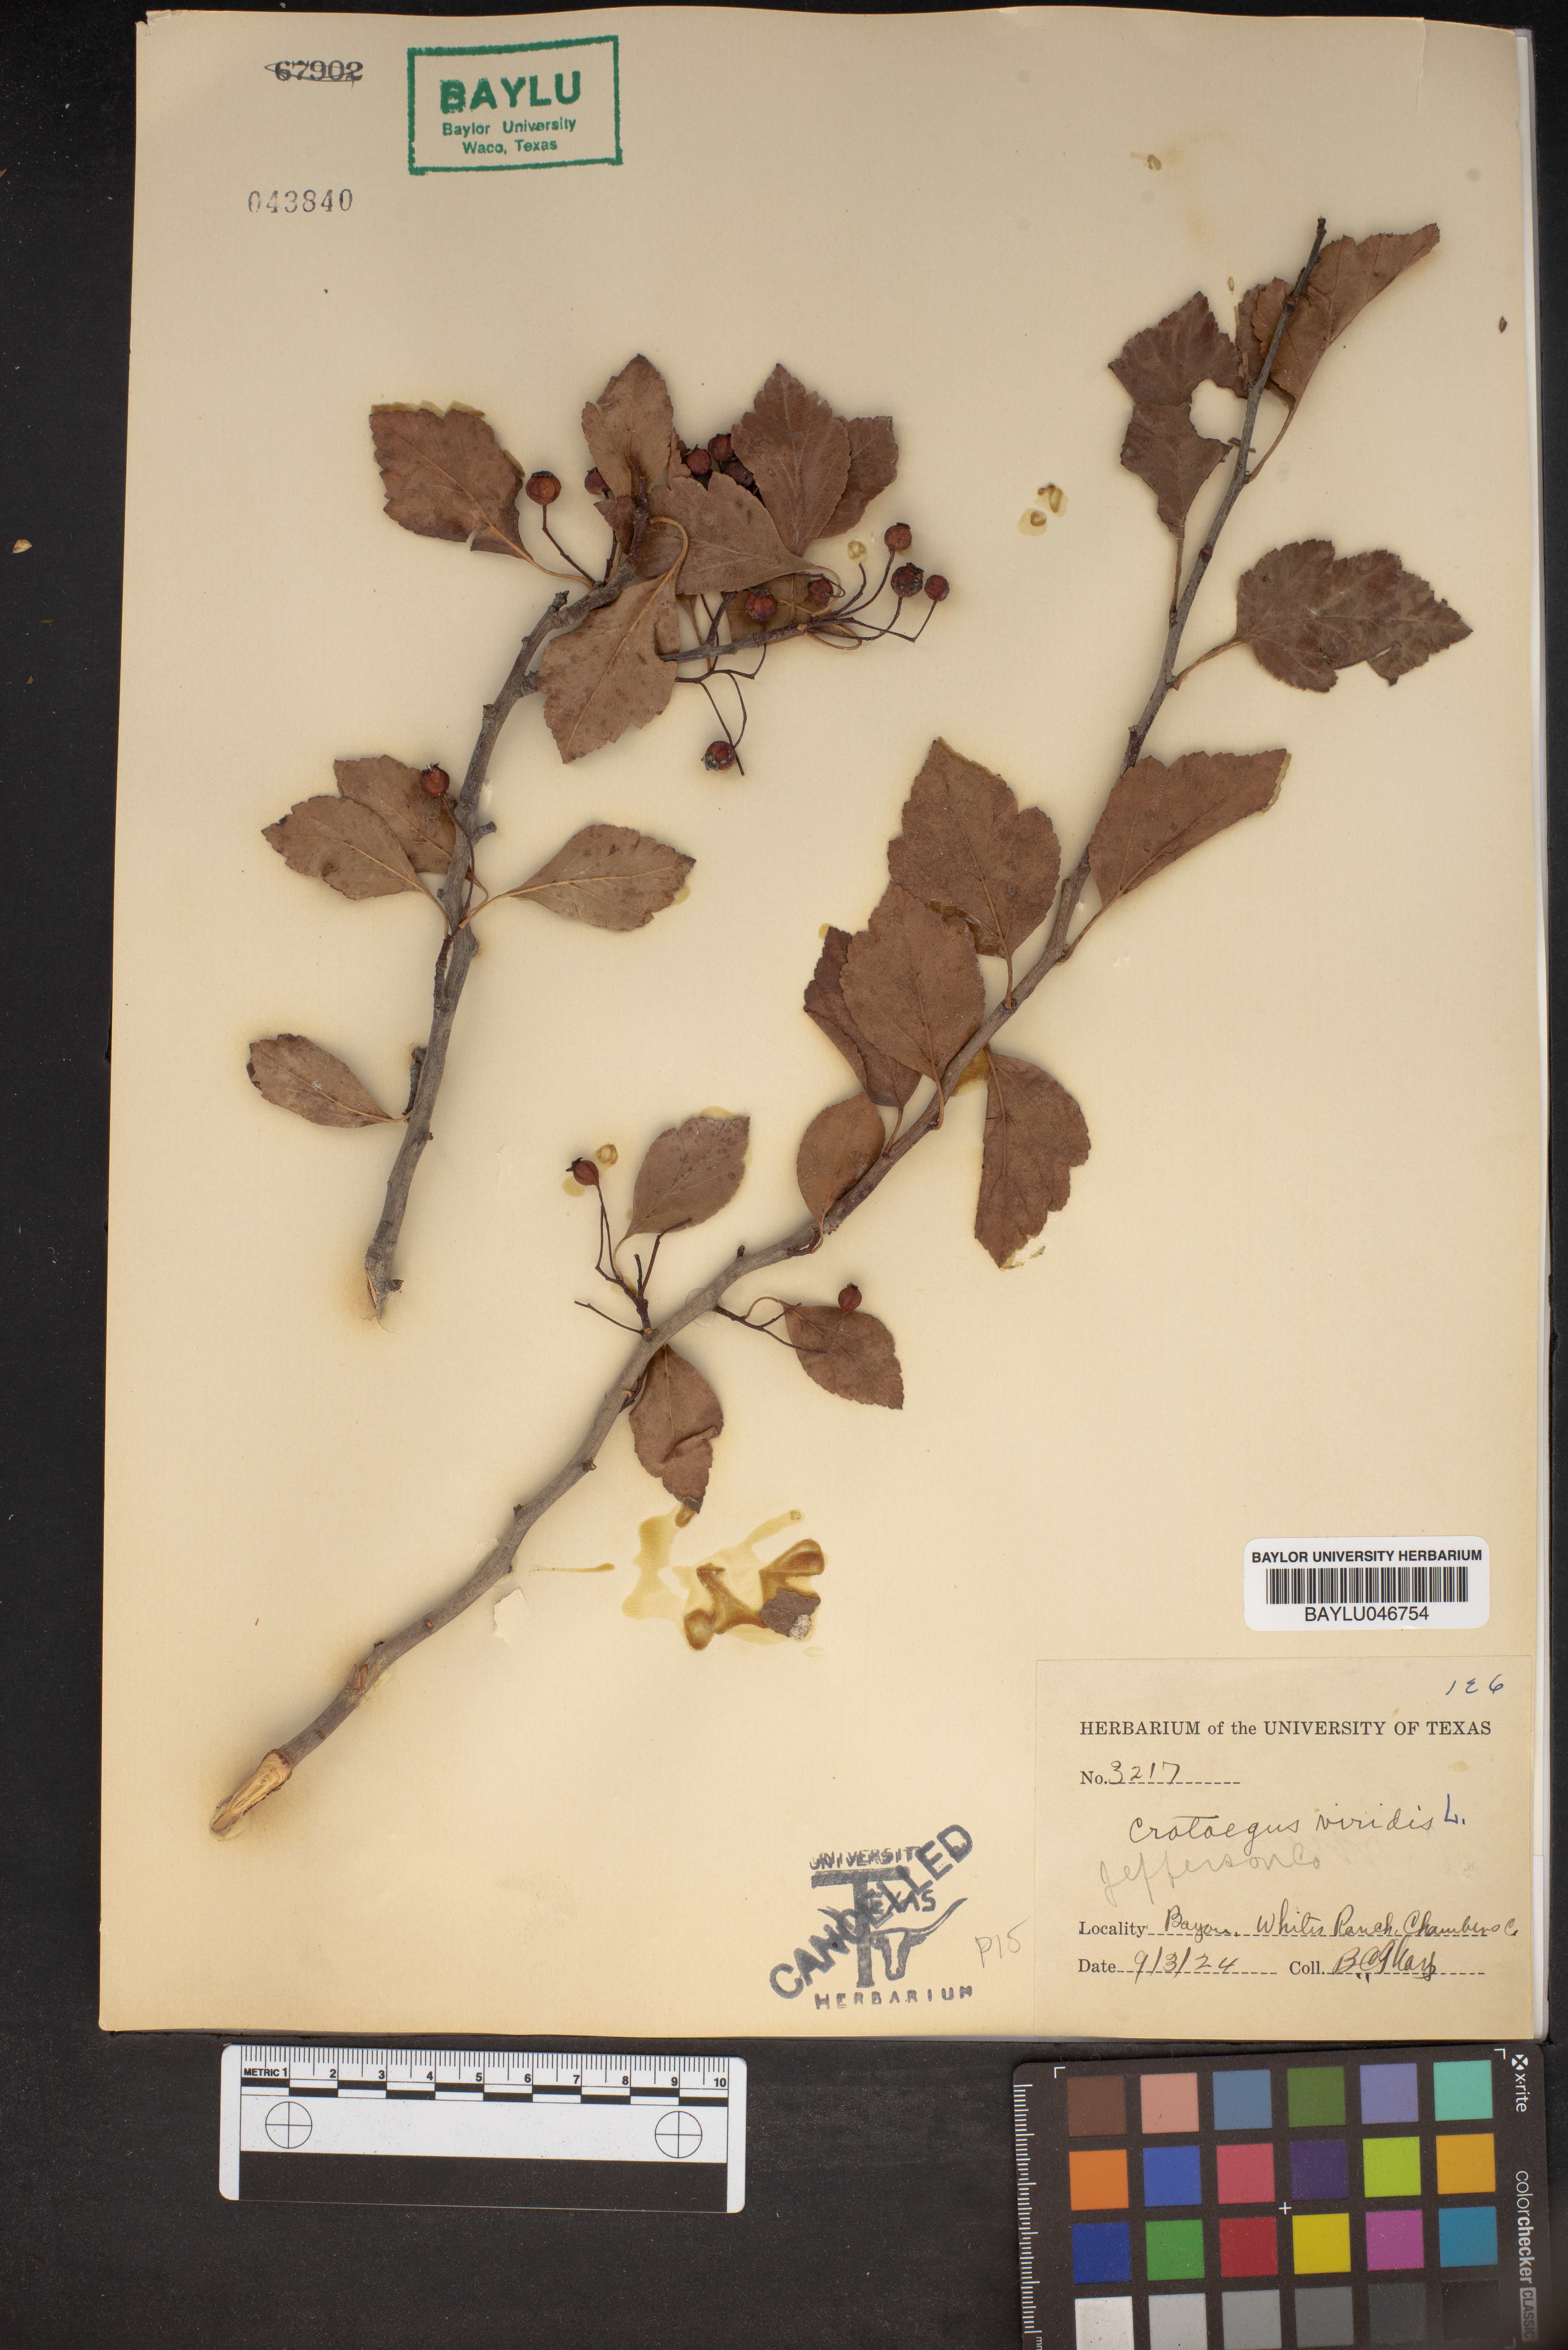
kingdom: Plantae
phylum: Tracheophyta
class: Magnoliopsida
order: Rosales
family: Rosaceae
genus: Crataegus
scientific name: Crataegus viridis
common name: Southernthorn
